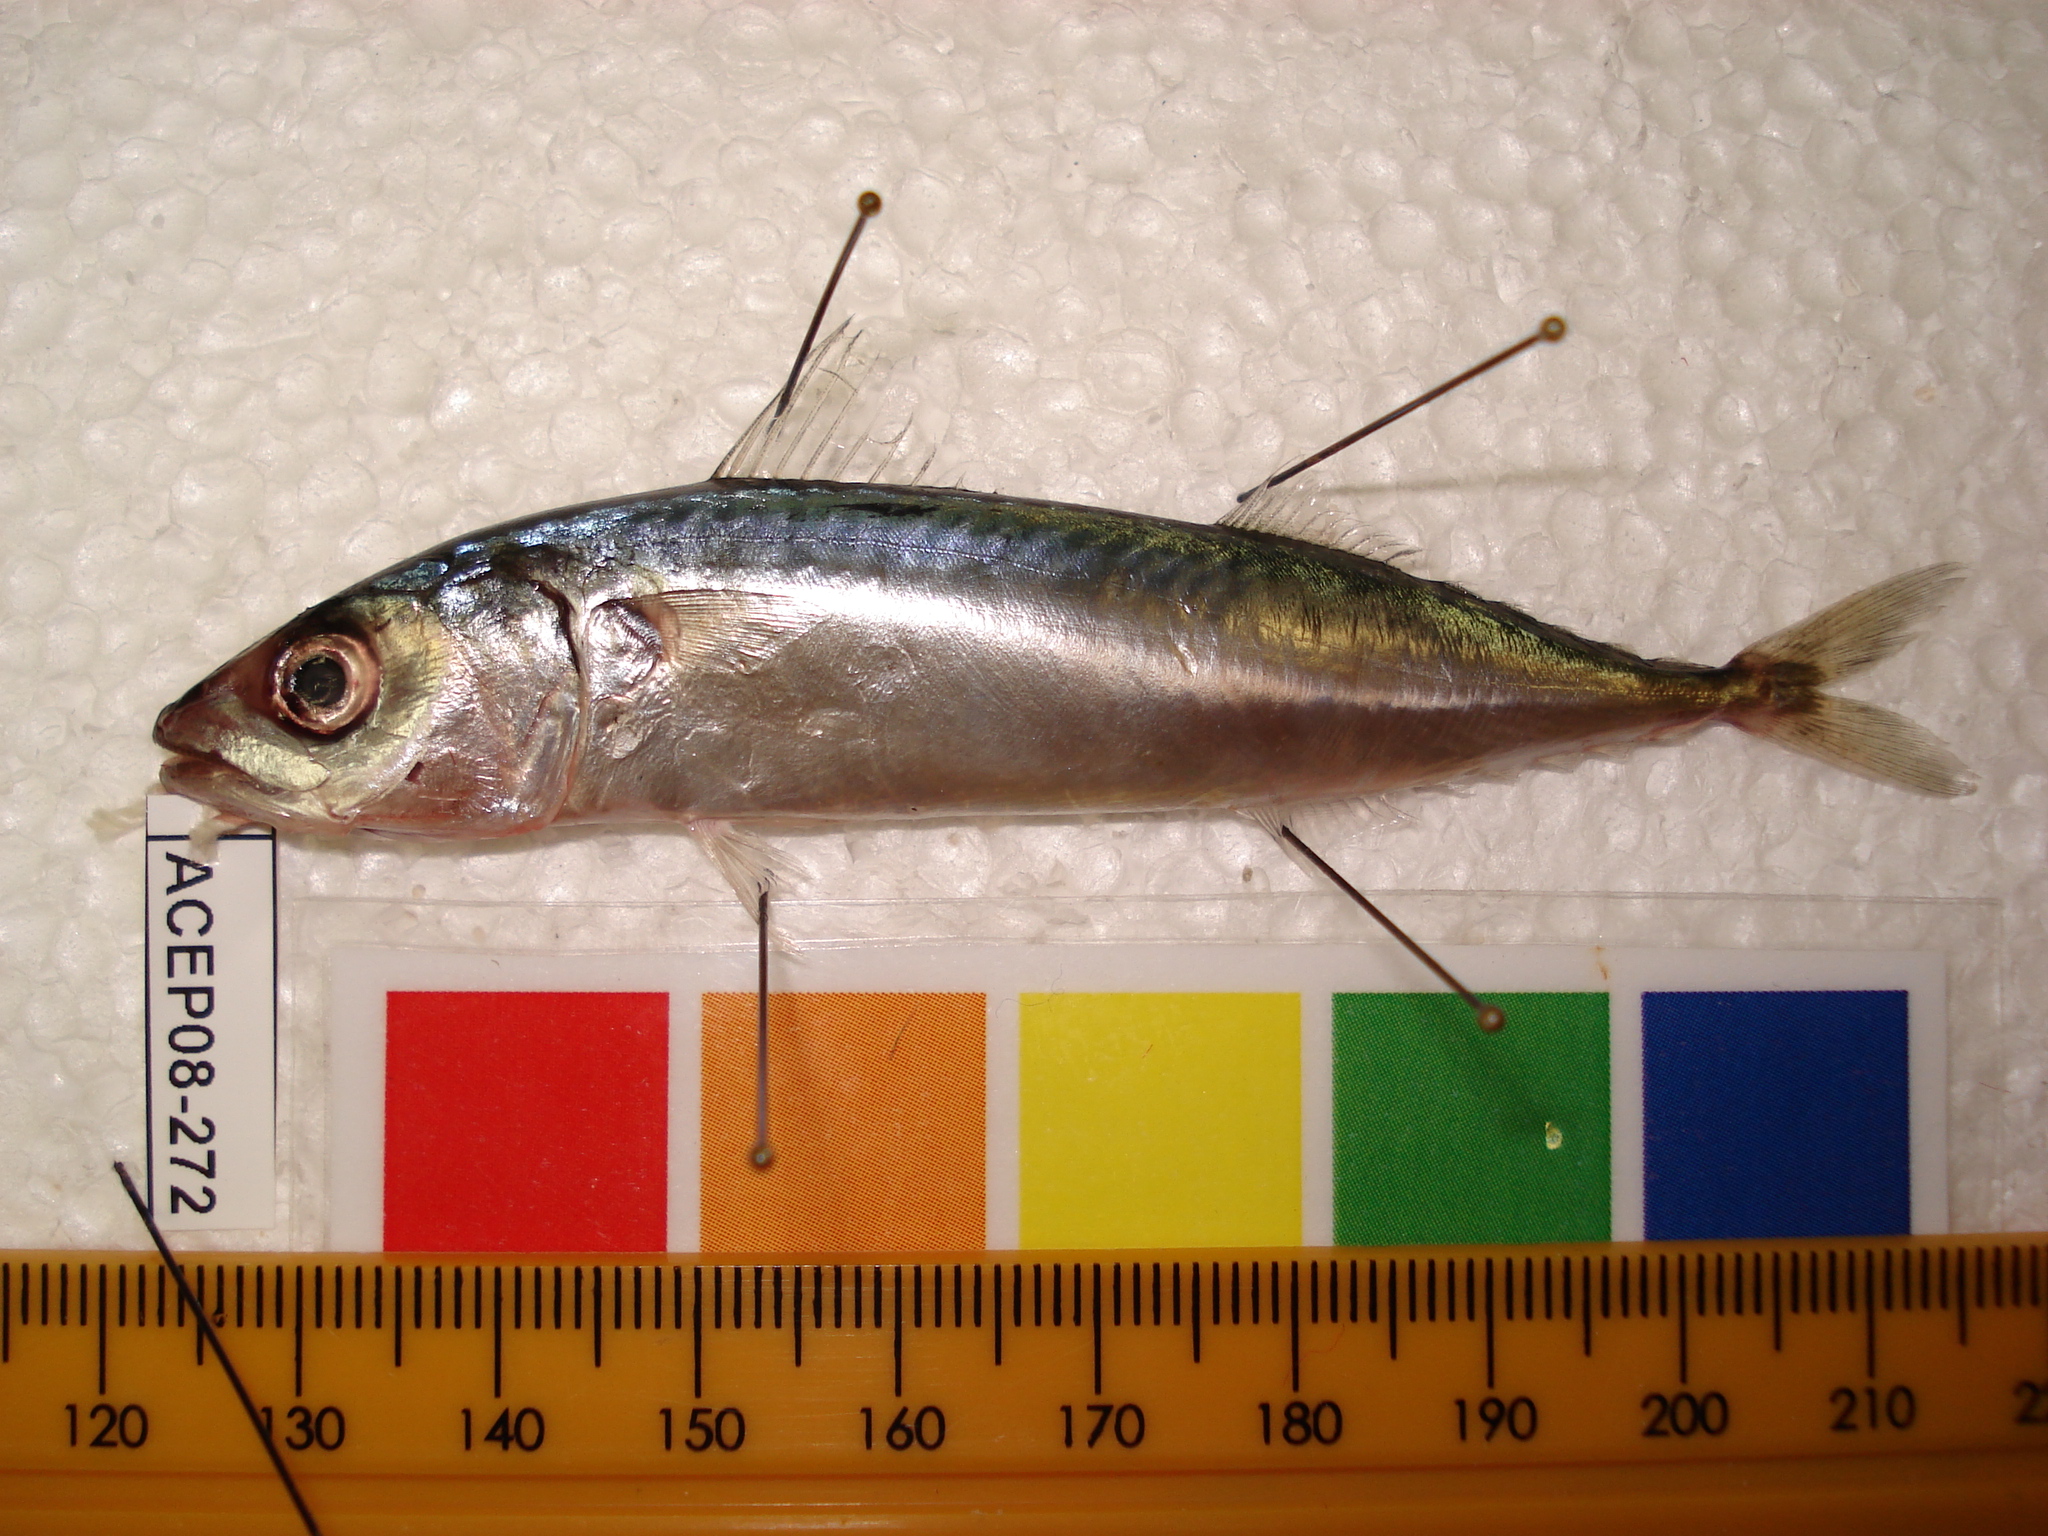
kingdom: Animalia
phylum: Chordata
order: Perciformes
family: Scombridae
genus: Scomber
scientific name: Scomber japonicus
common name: Chub mackerel
